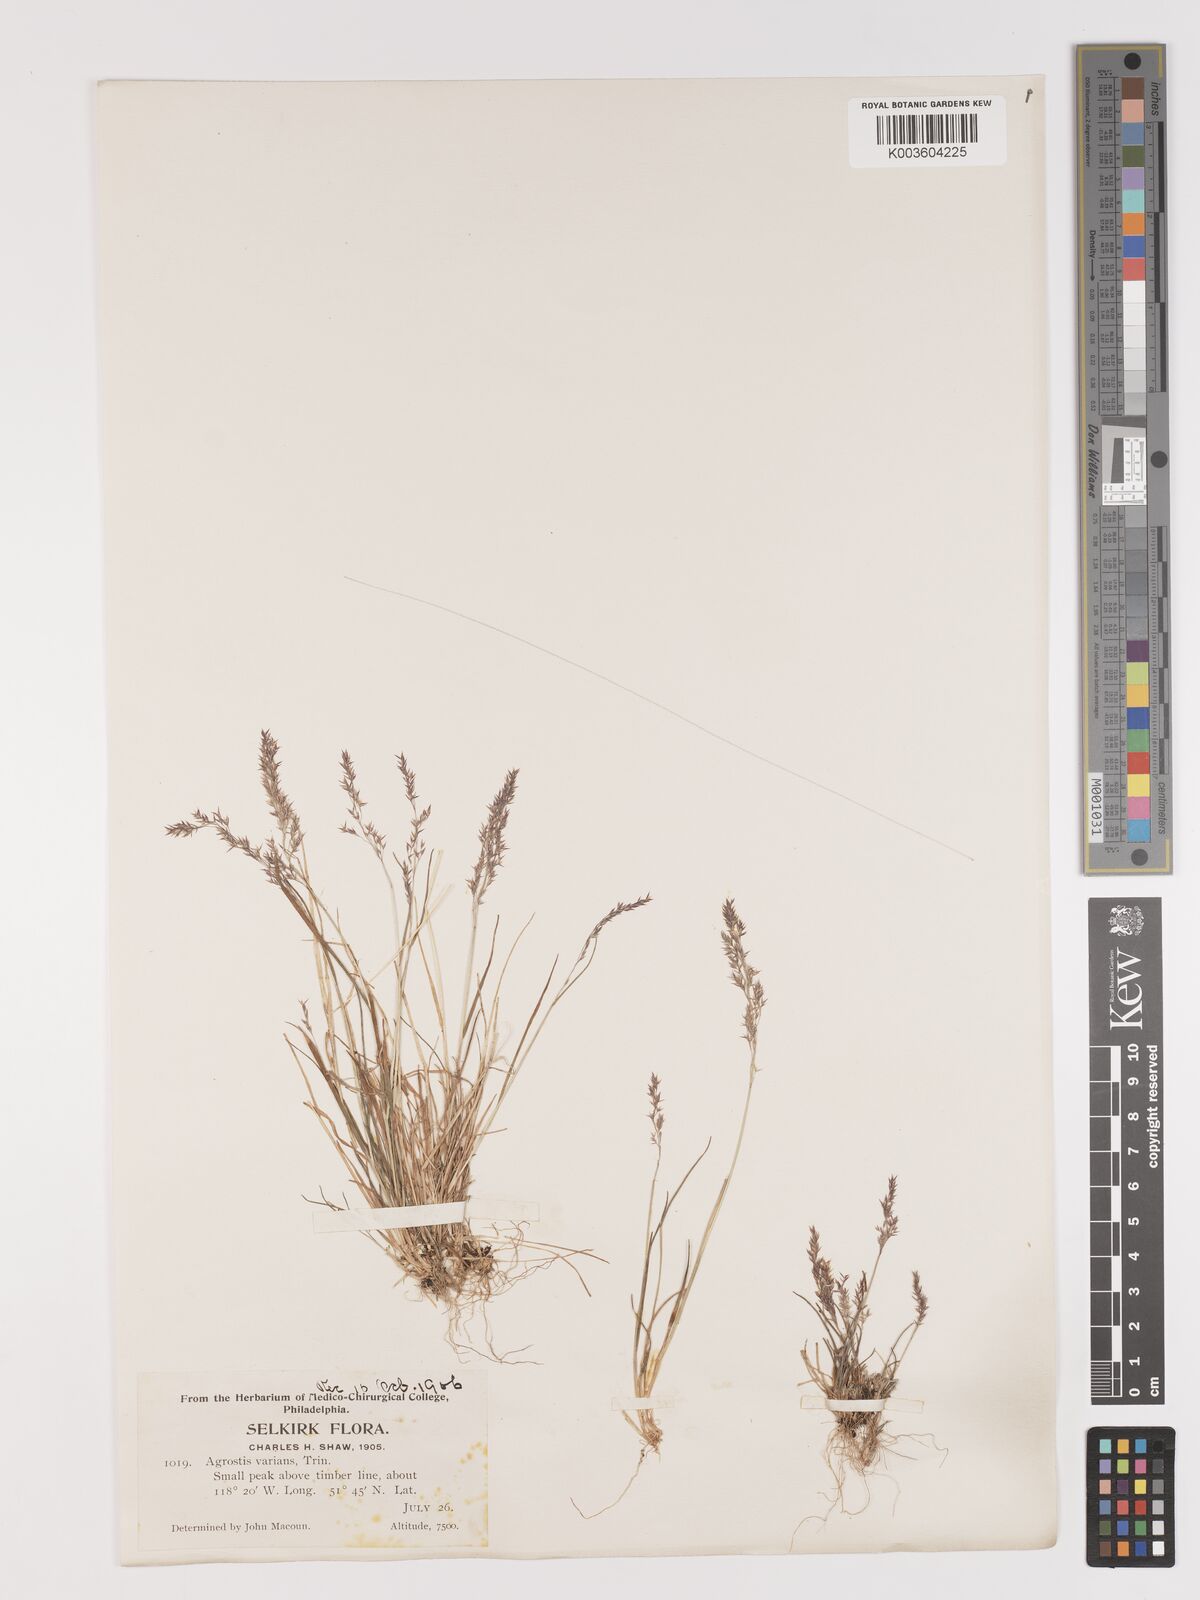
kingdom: Plantae
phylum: Tracheophyta
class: Liliopsida
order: Poales
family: Poaceae
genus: Agrostis
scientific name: Agrostis variabilis
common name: Alpine bent
